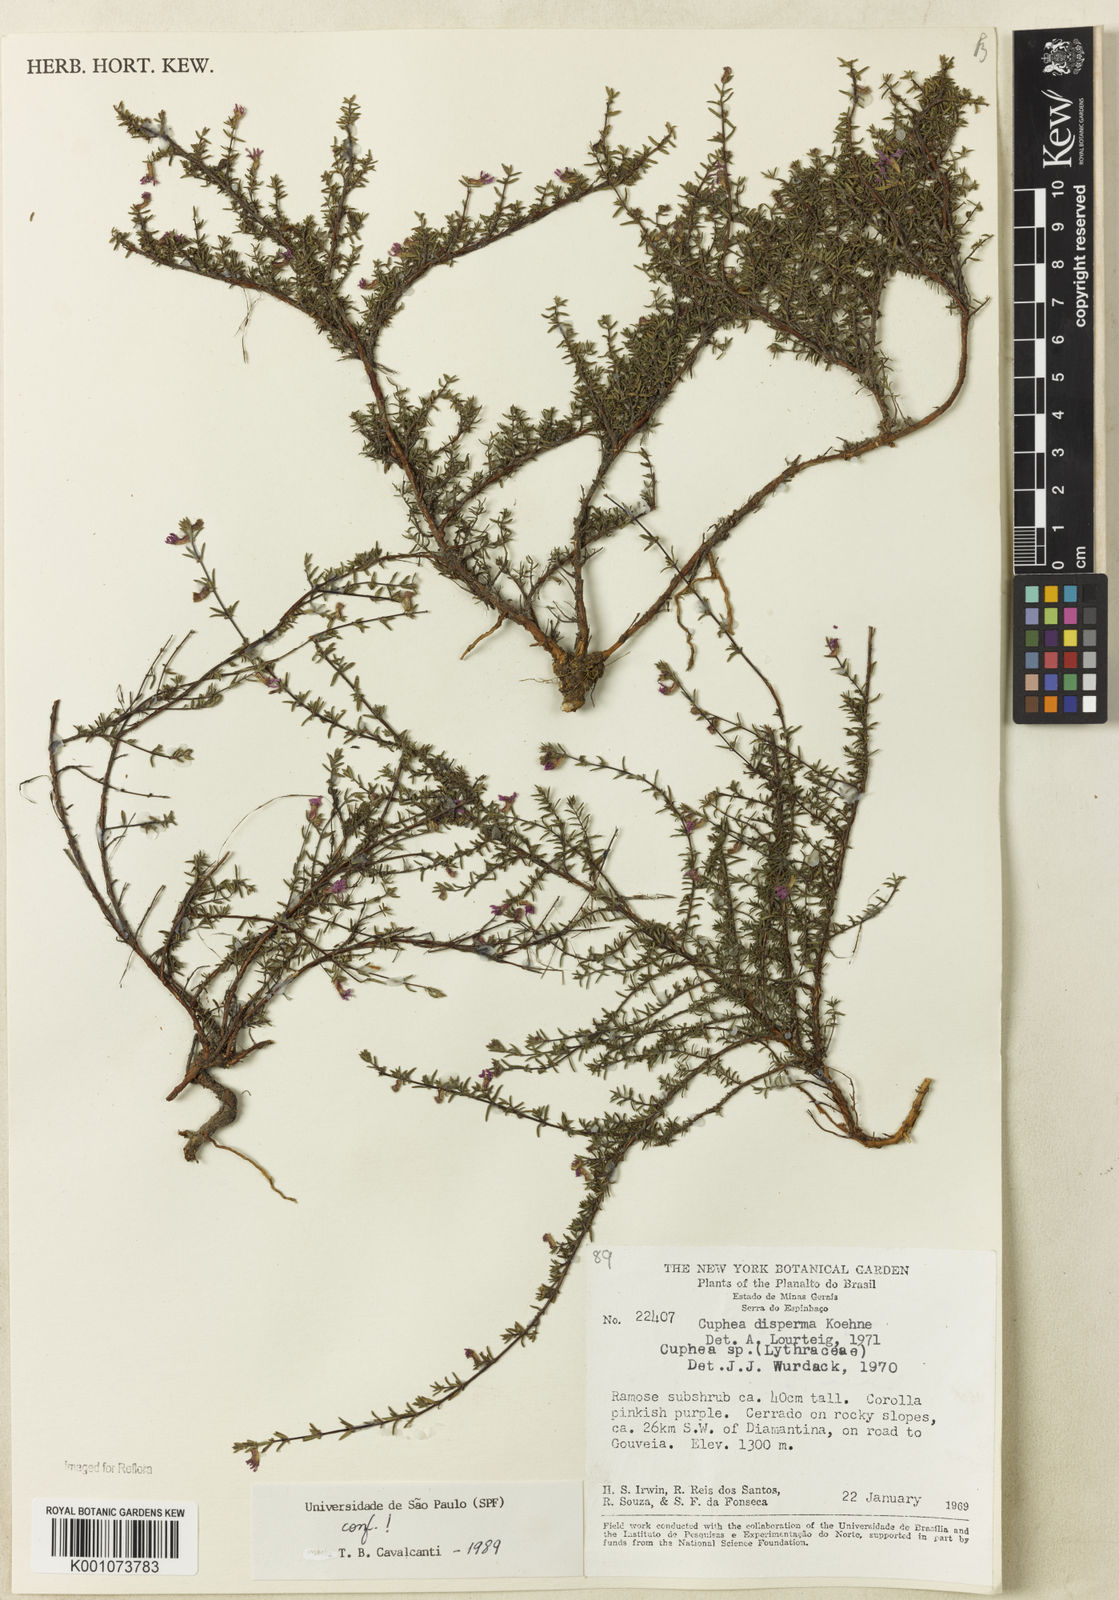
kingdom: Plantae
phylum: Tracheophyta
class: Magnoliopsida
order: Myrtales
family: Lythraceae
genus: Cuphea
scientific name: Cuphea disperma
